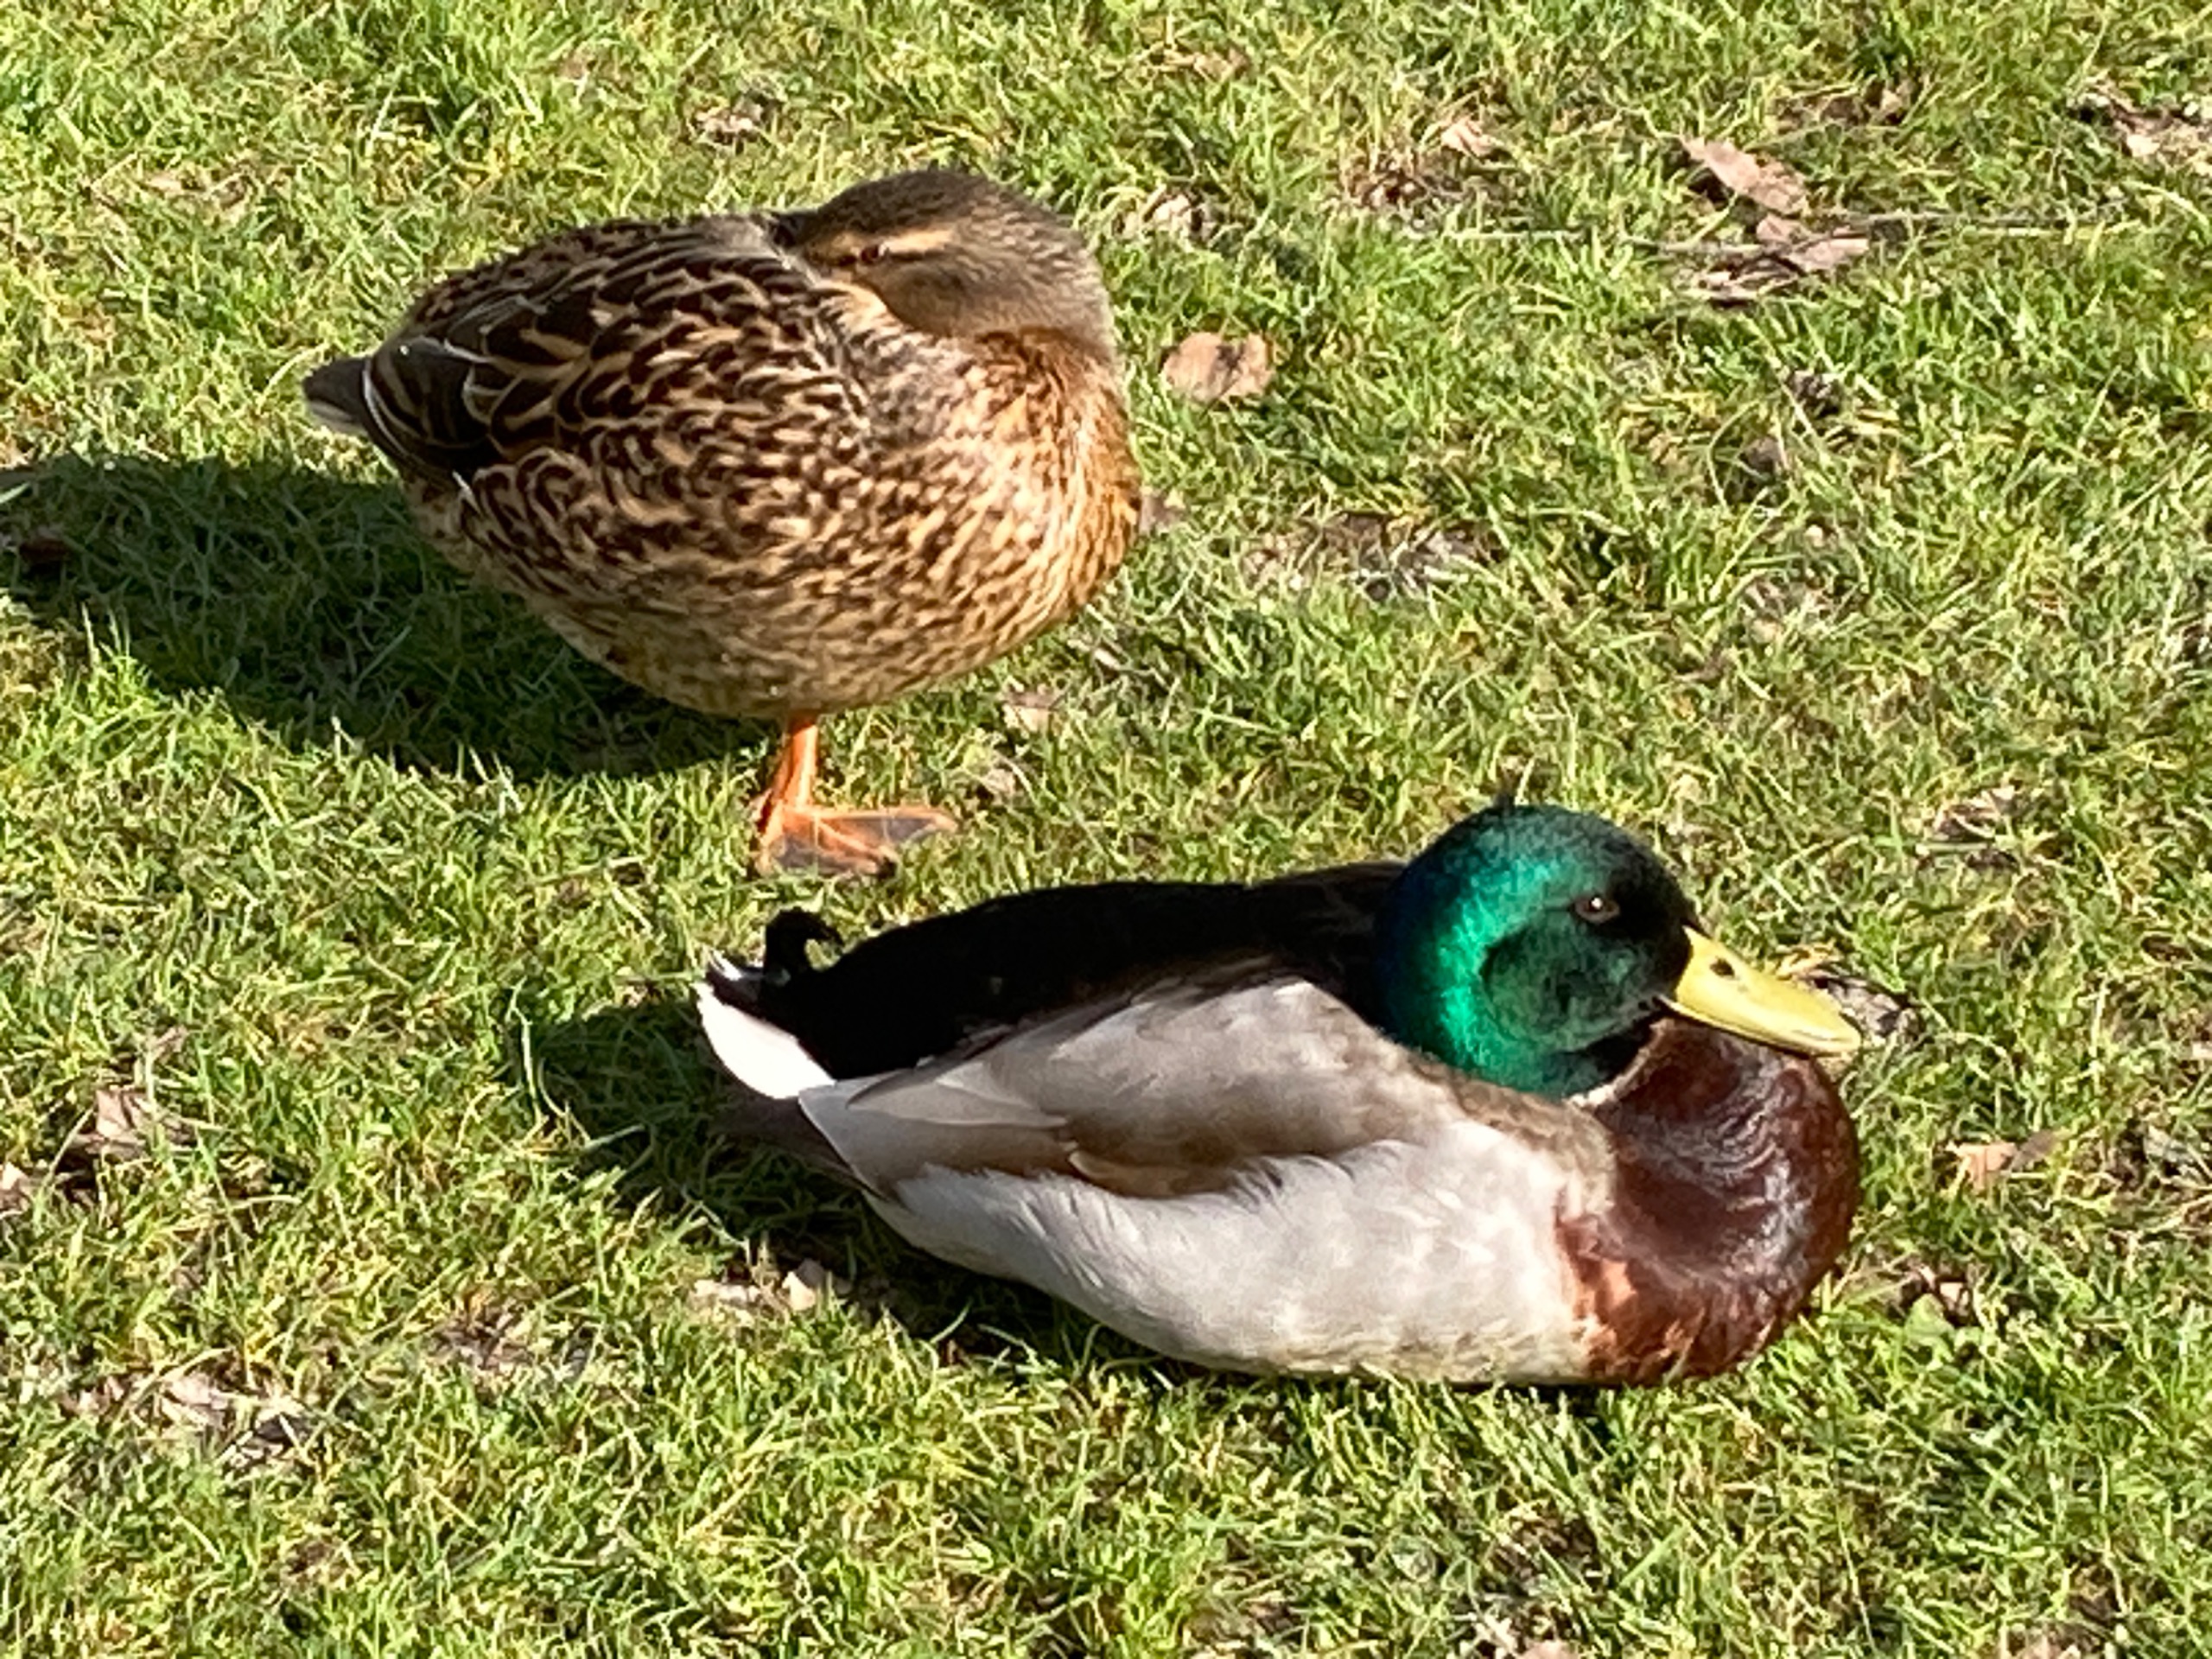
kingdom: Animalia
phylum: Chordata
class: Aves
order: Anseriformes
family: Anatidae
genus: Anas
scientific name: Anas platyrhynchos
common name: Gråand
